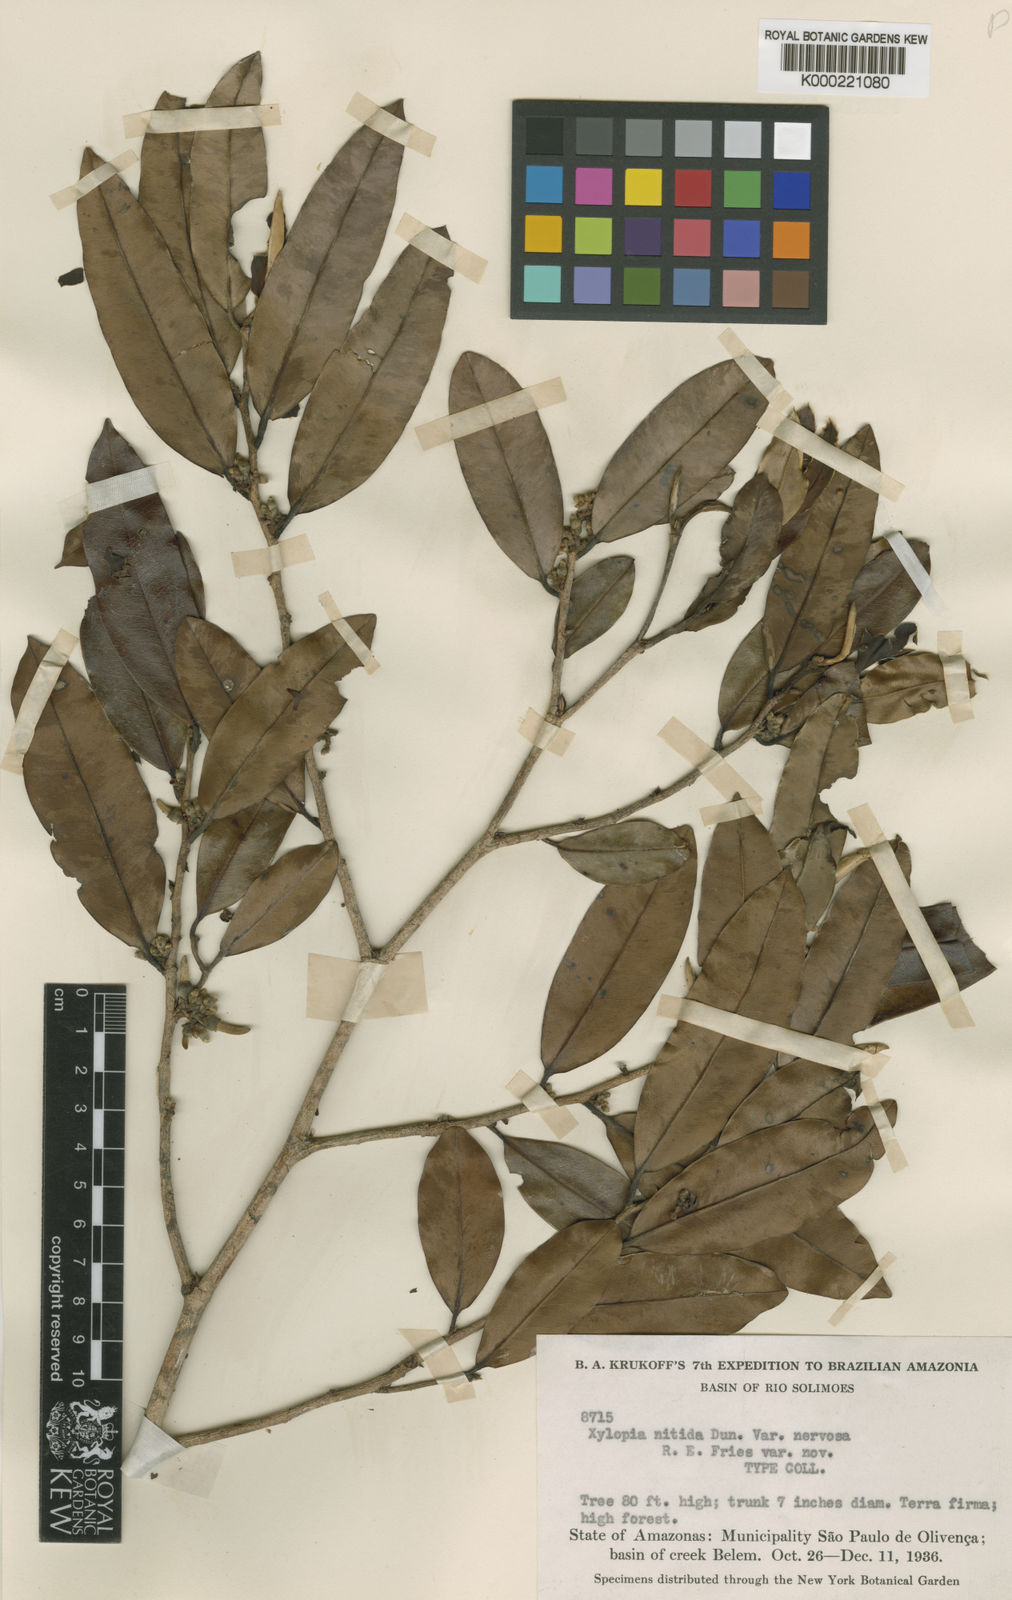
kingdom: Plantae
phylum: Tracheophyta
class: Magnoliopsida
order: Magnoliales
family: Annonaceae
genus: Xylopia
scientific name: Xylopia nitida
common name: White kuyama
